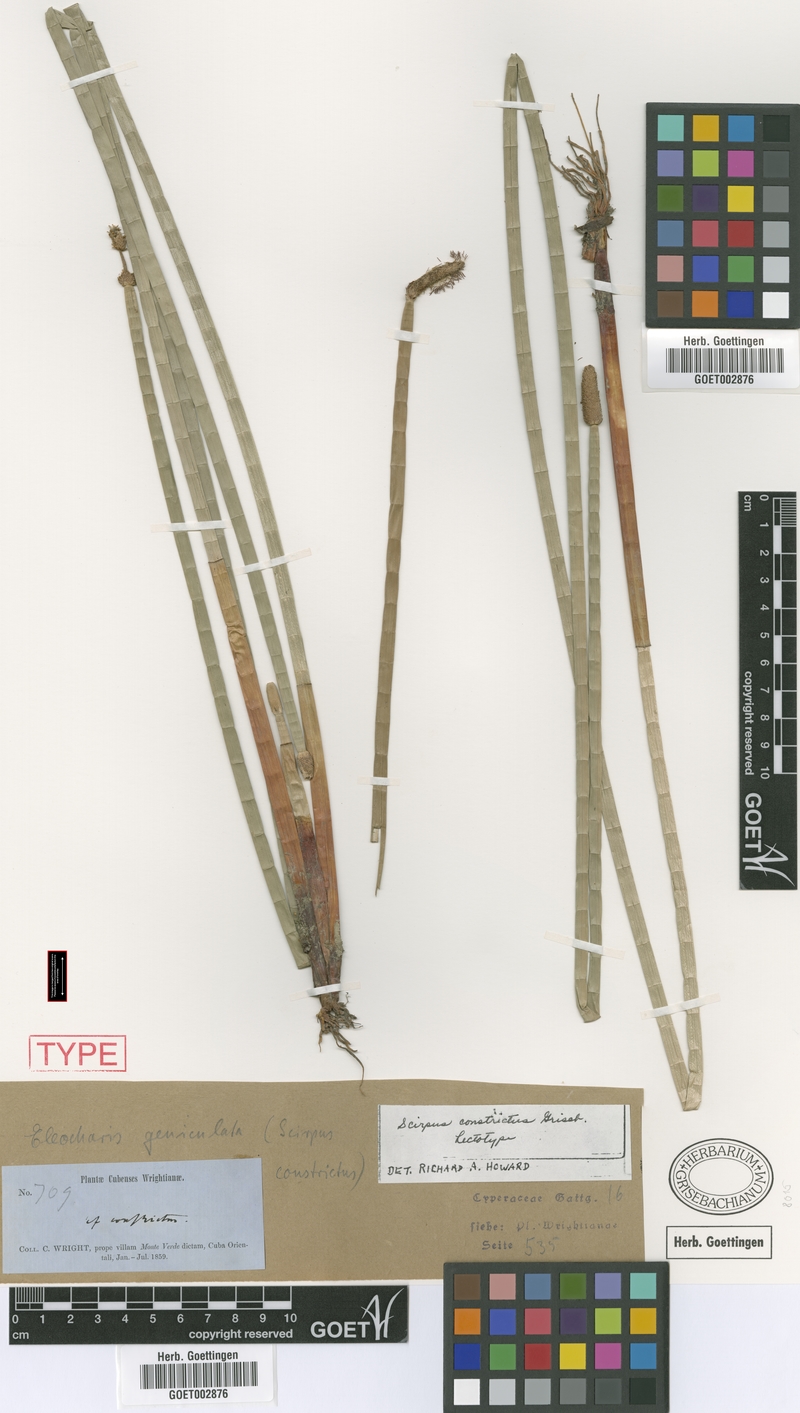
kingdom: Plantae
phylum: Tracheophyta
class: Liliopsida
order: Poales
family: Cyperaceae
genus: Eleocharis
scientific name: Eleocharis geniculata
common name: Canada spikesedge
